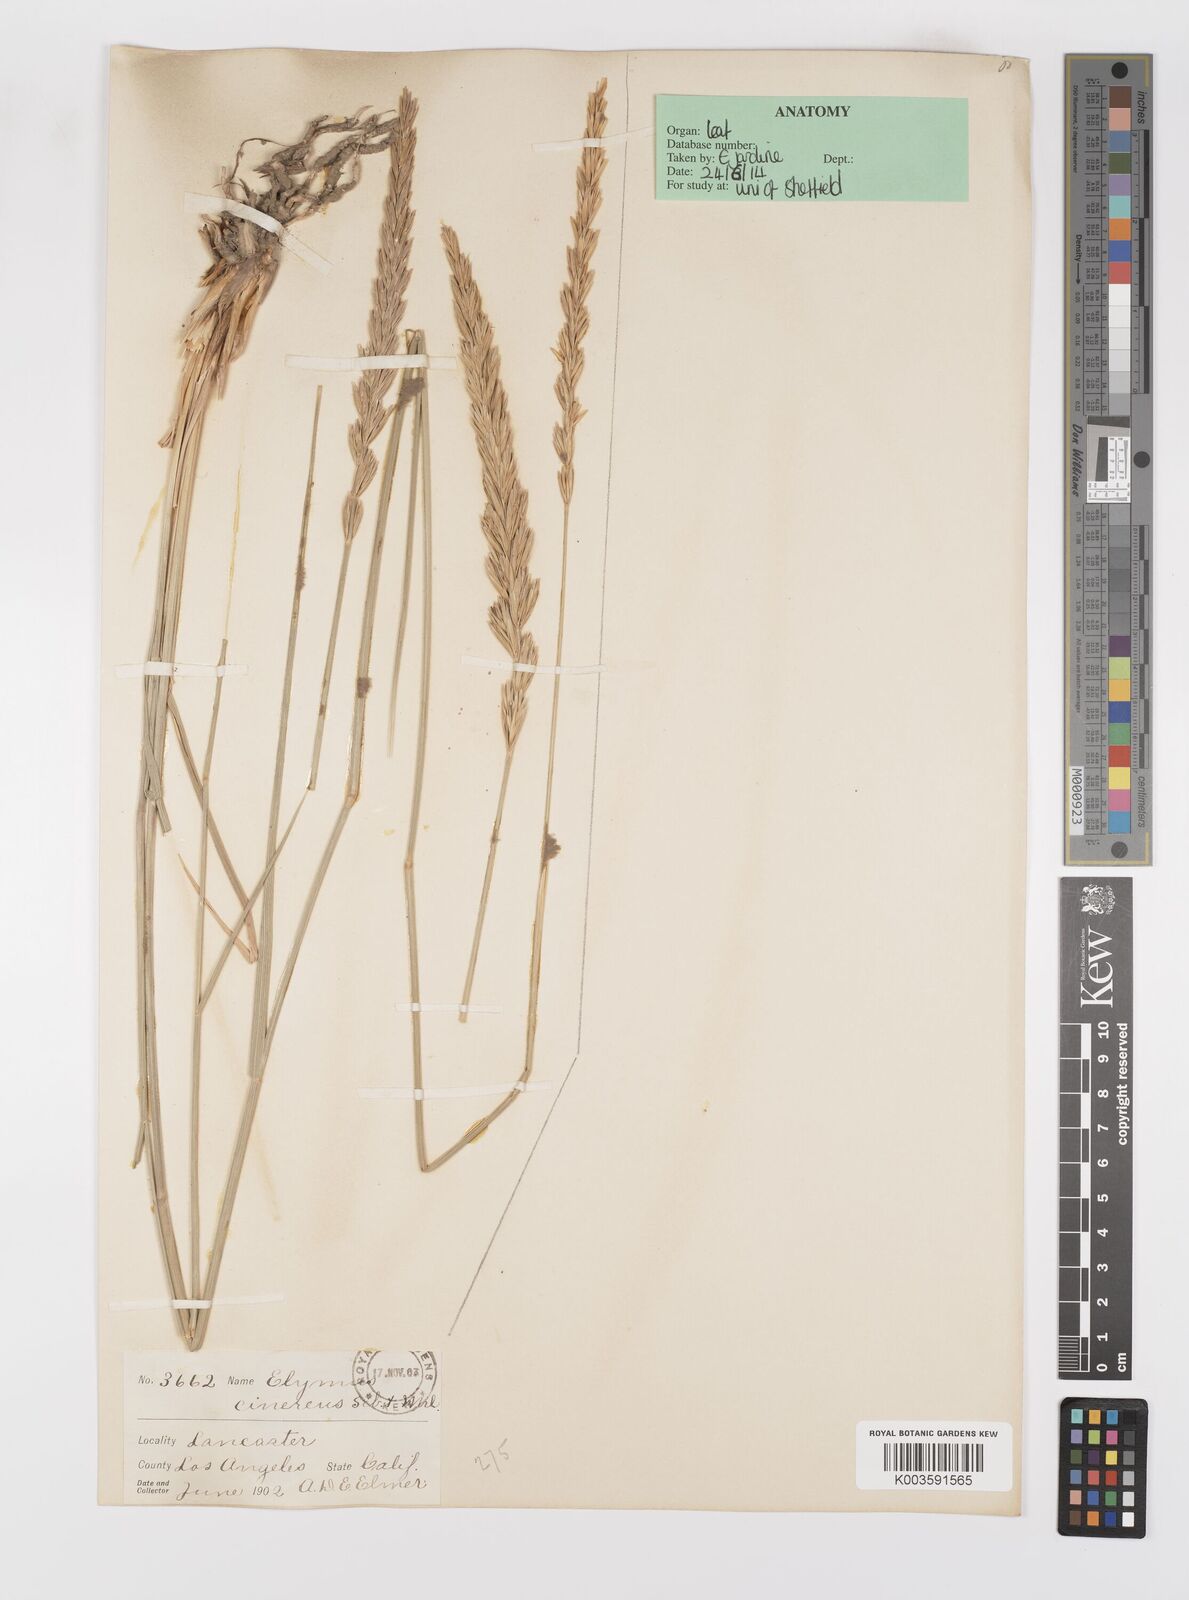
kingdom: Plantae
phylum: Tracheophyta
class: Liliopsida
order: Poales
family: Poaceae
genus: Leymus
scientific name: Leymus cinereus
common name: Basin wild rye
